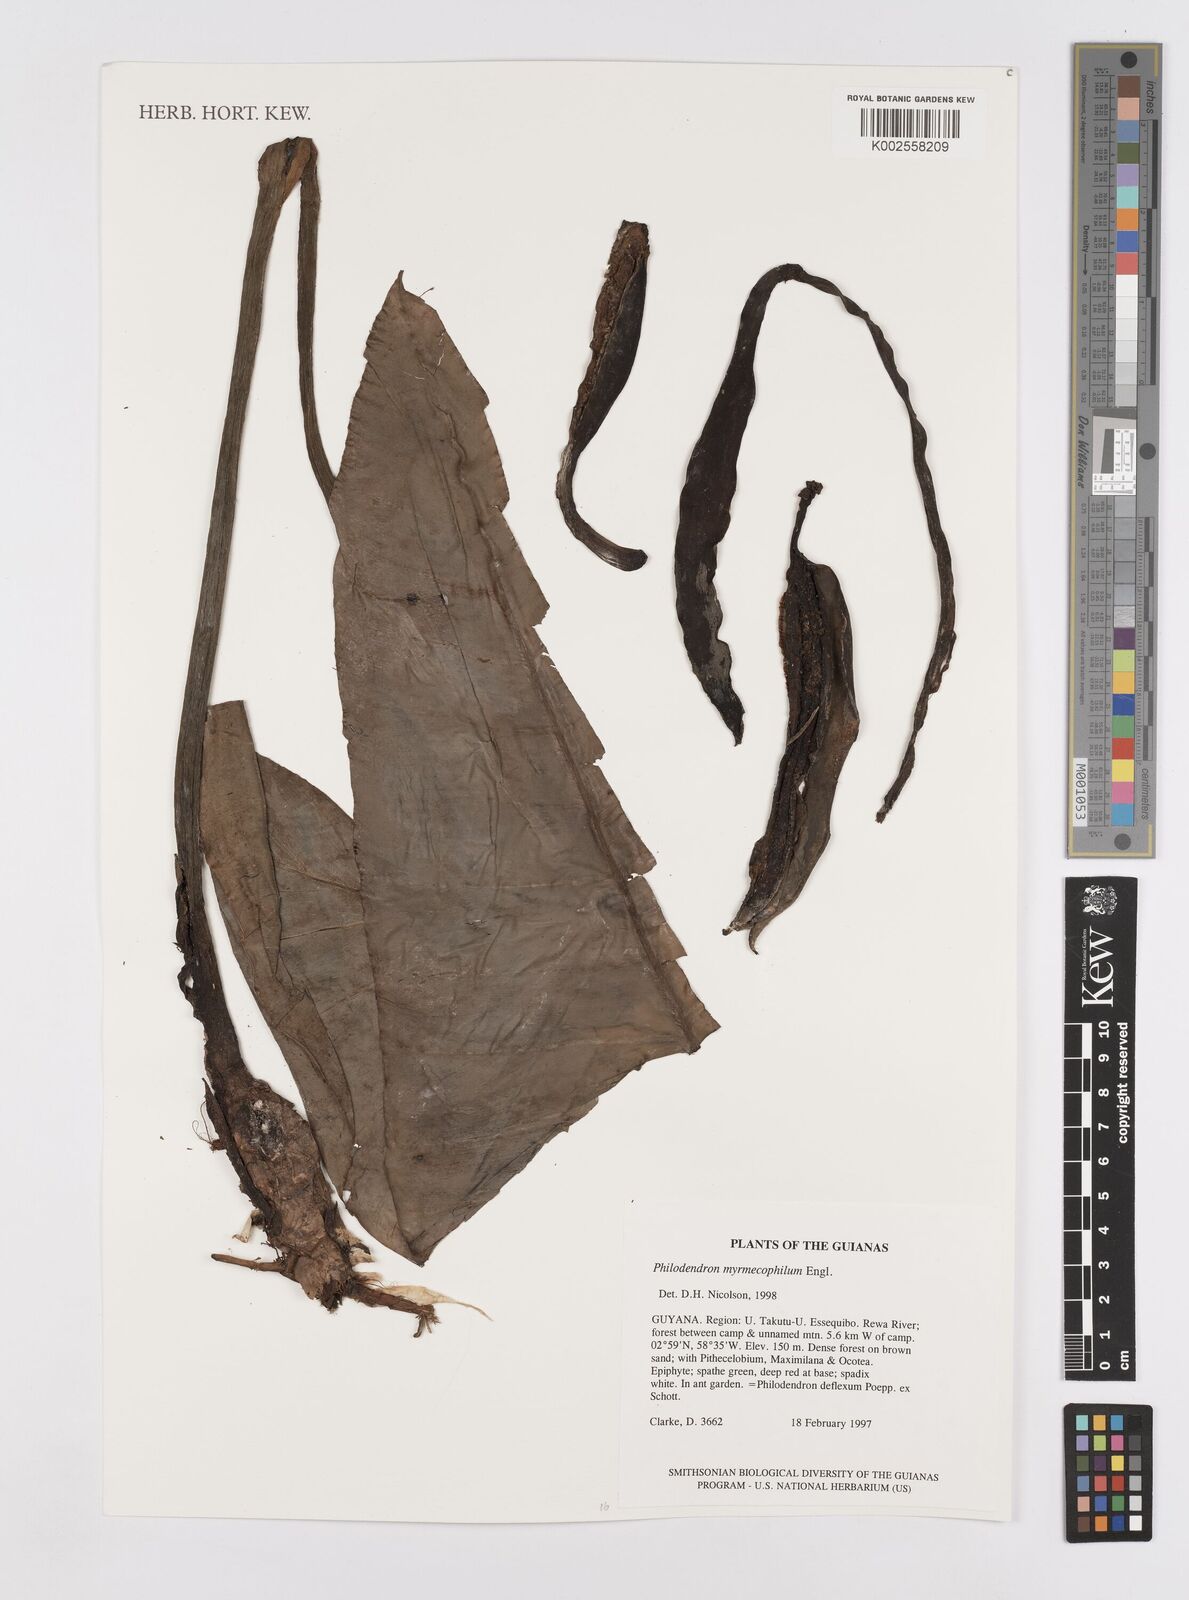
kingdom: Plantae
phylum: Tracheophyta
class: Liliopsida
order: Alismatales
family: Araceae
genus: Philodendron
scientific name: Philodendron myrmecophilum
